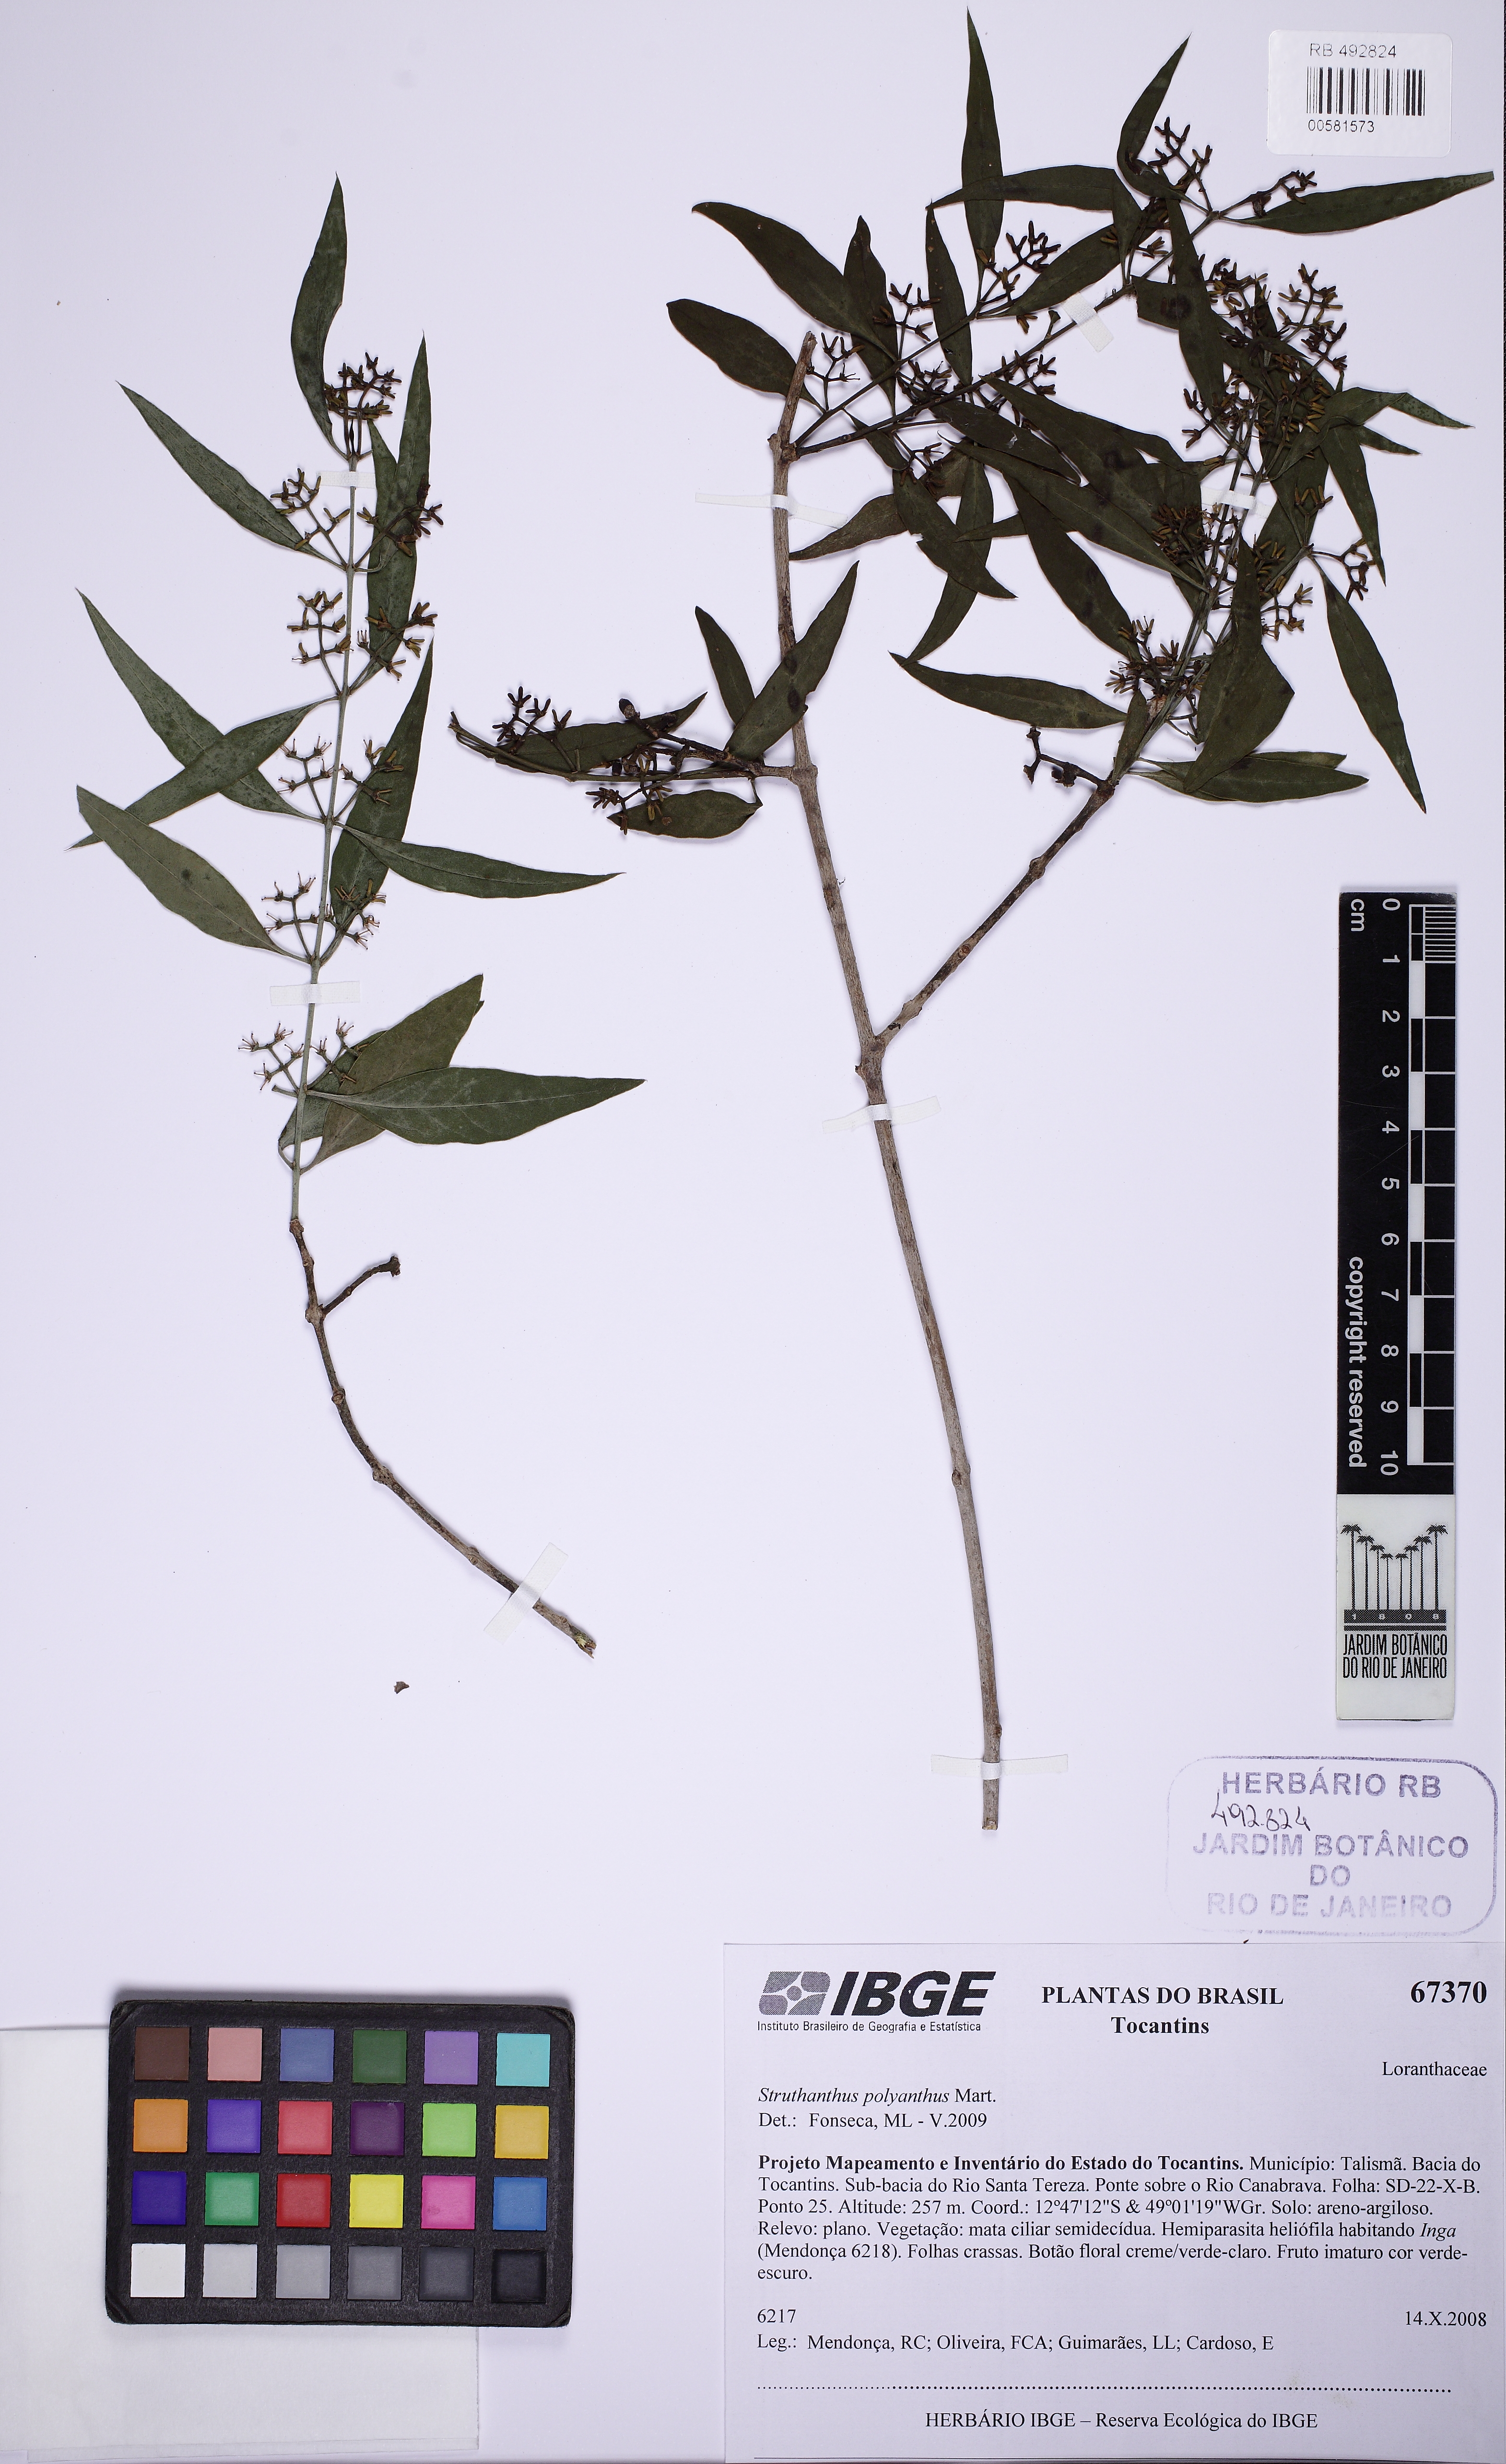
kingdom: Plantae
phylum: Tracheophyta
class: Magnoliopsida
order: Santalales
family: Loranthaceae
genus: Struthanthus
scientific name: Struthanthus polyanthus
